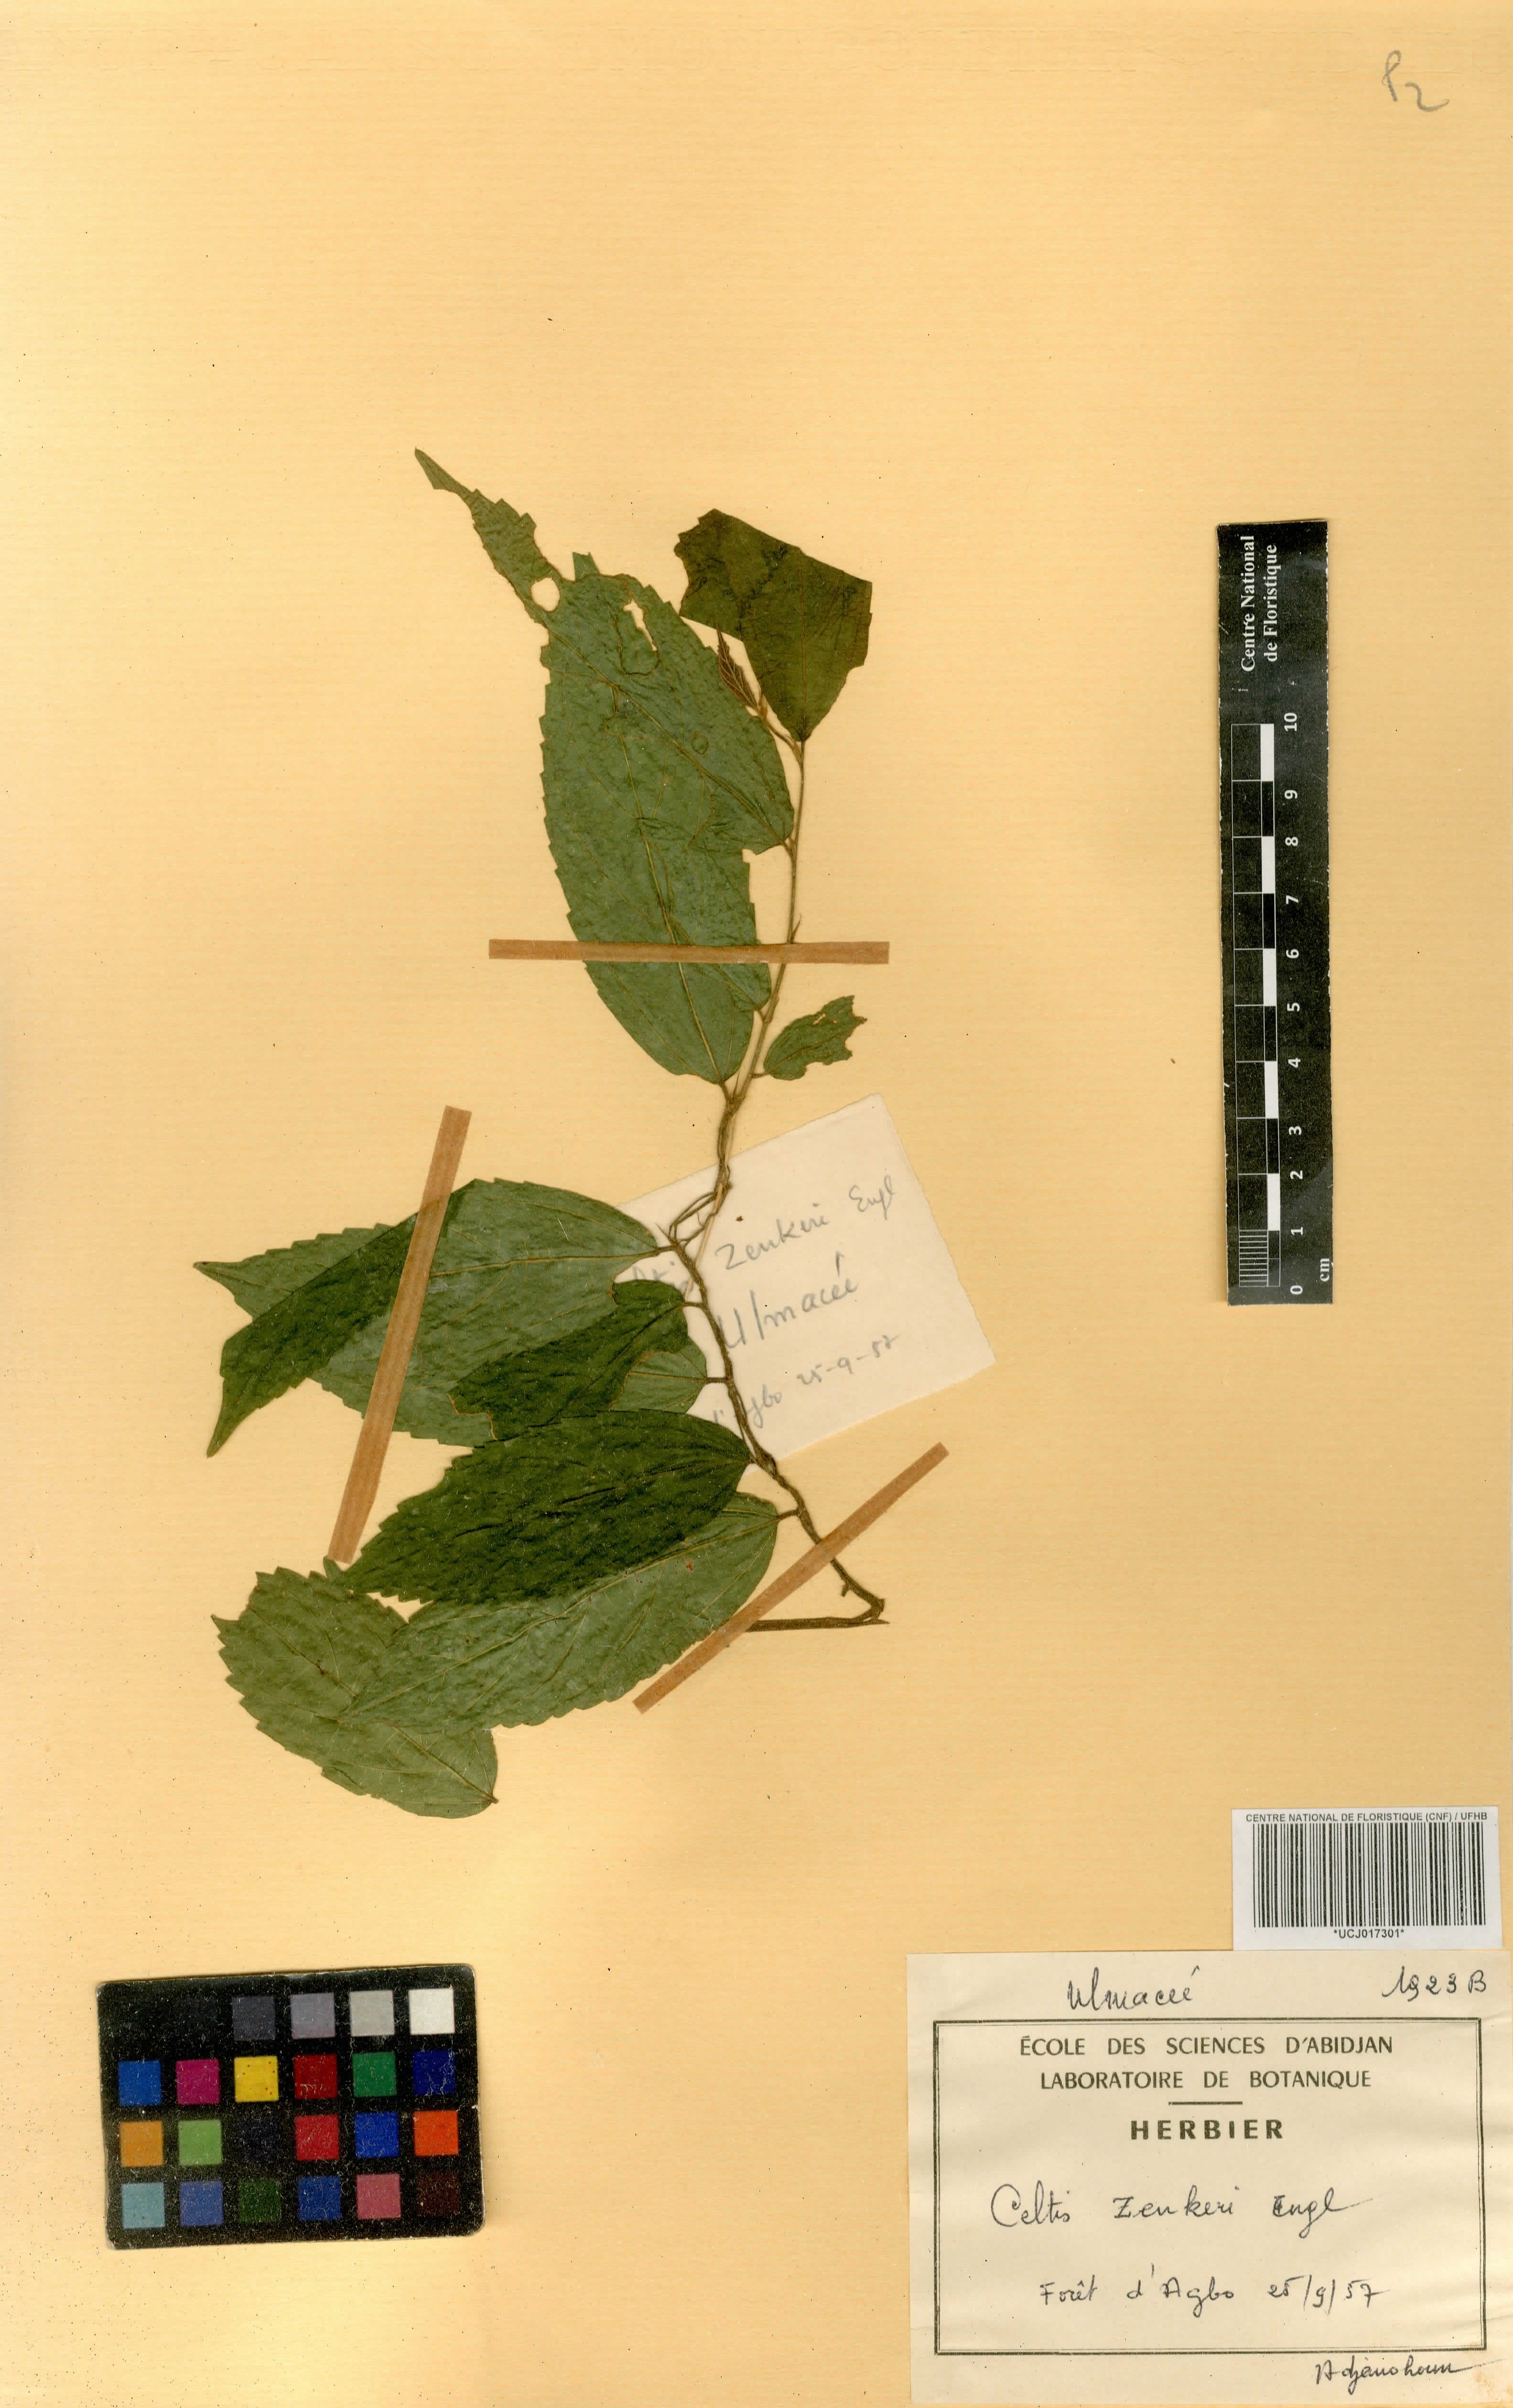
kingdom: Plantae
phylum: Tracheophyta
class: Magnoliopsida
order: Rosales
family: Cannabaceae
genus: Celtis
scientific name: Celtis zenkeri
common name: African celtis
